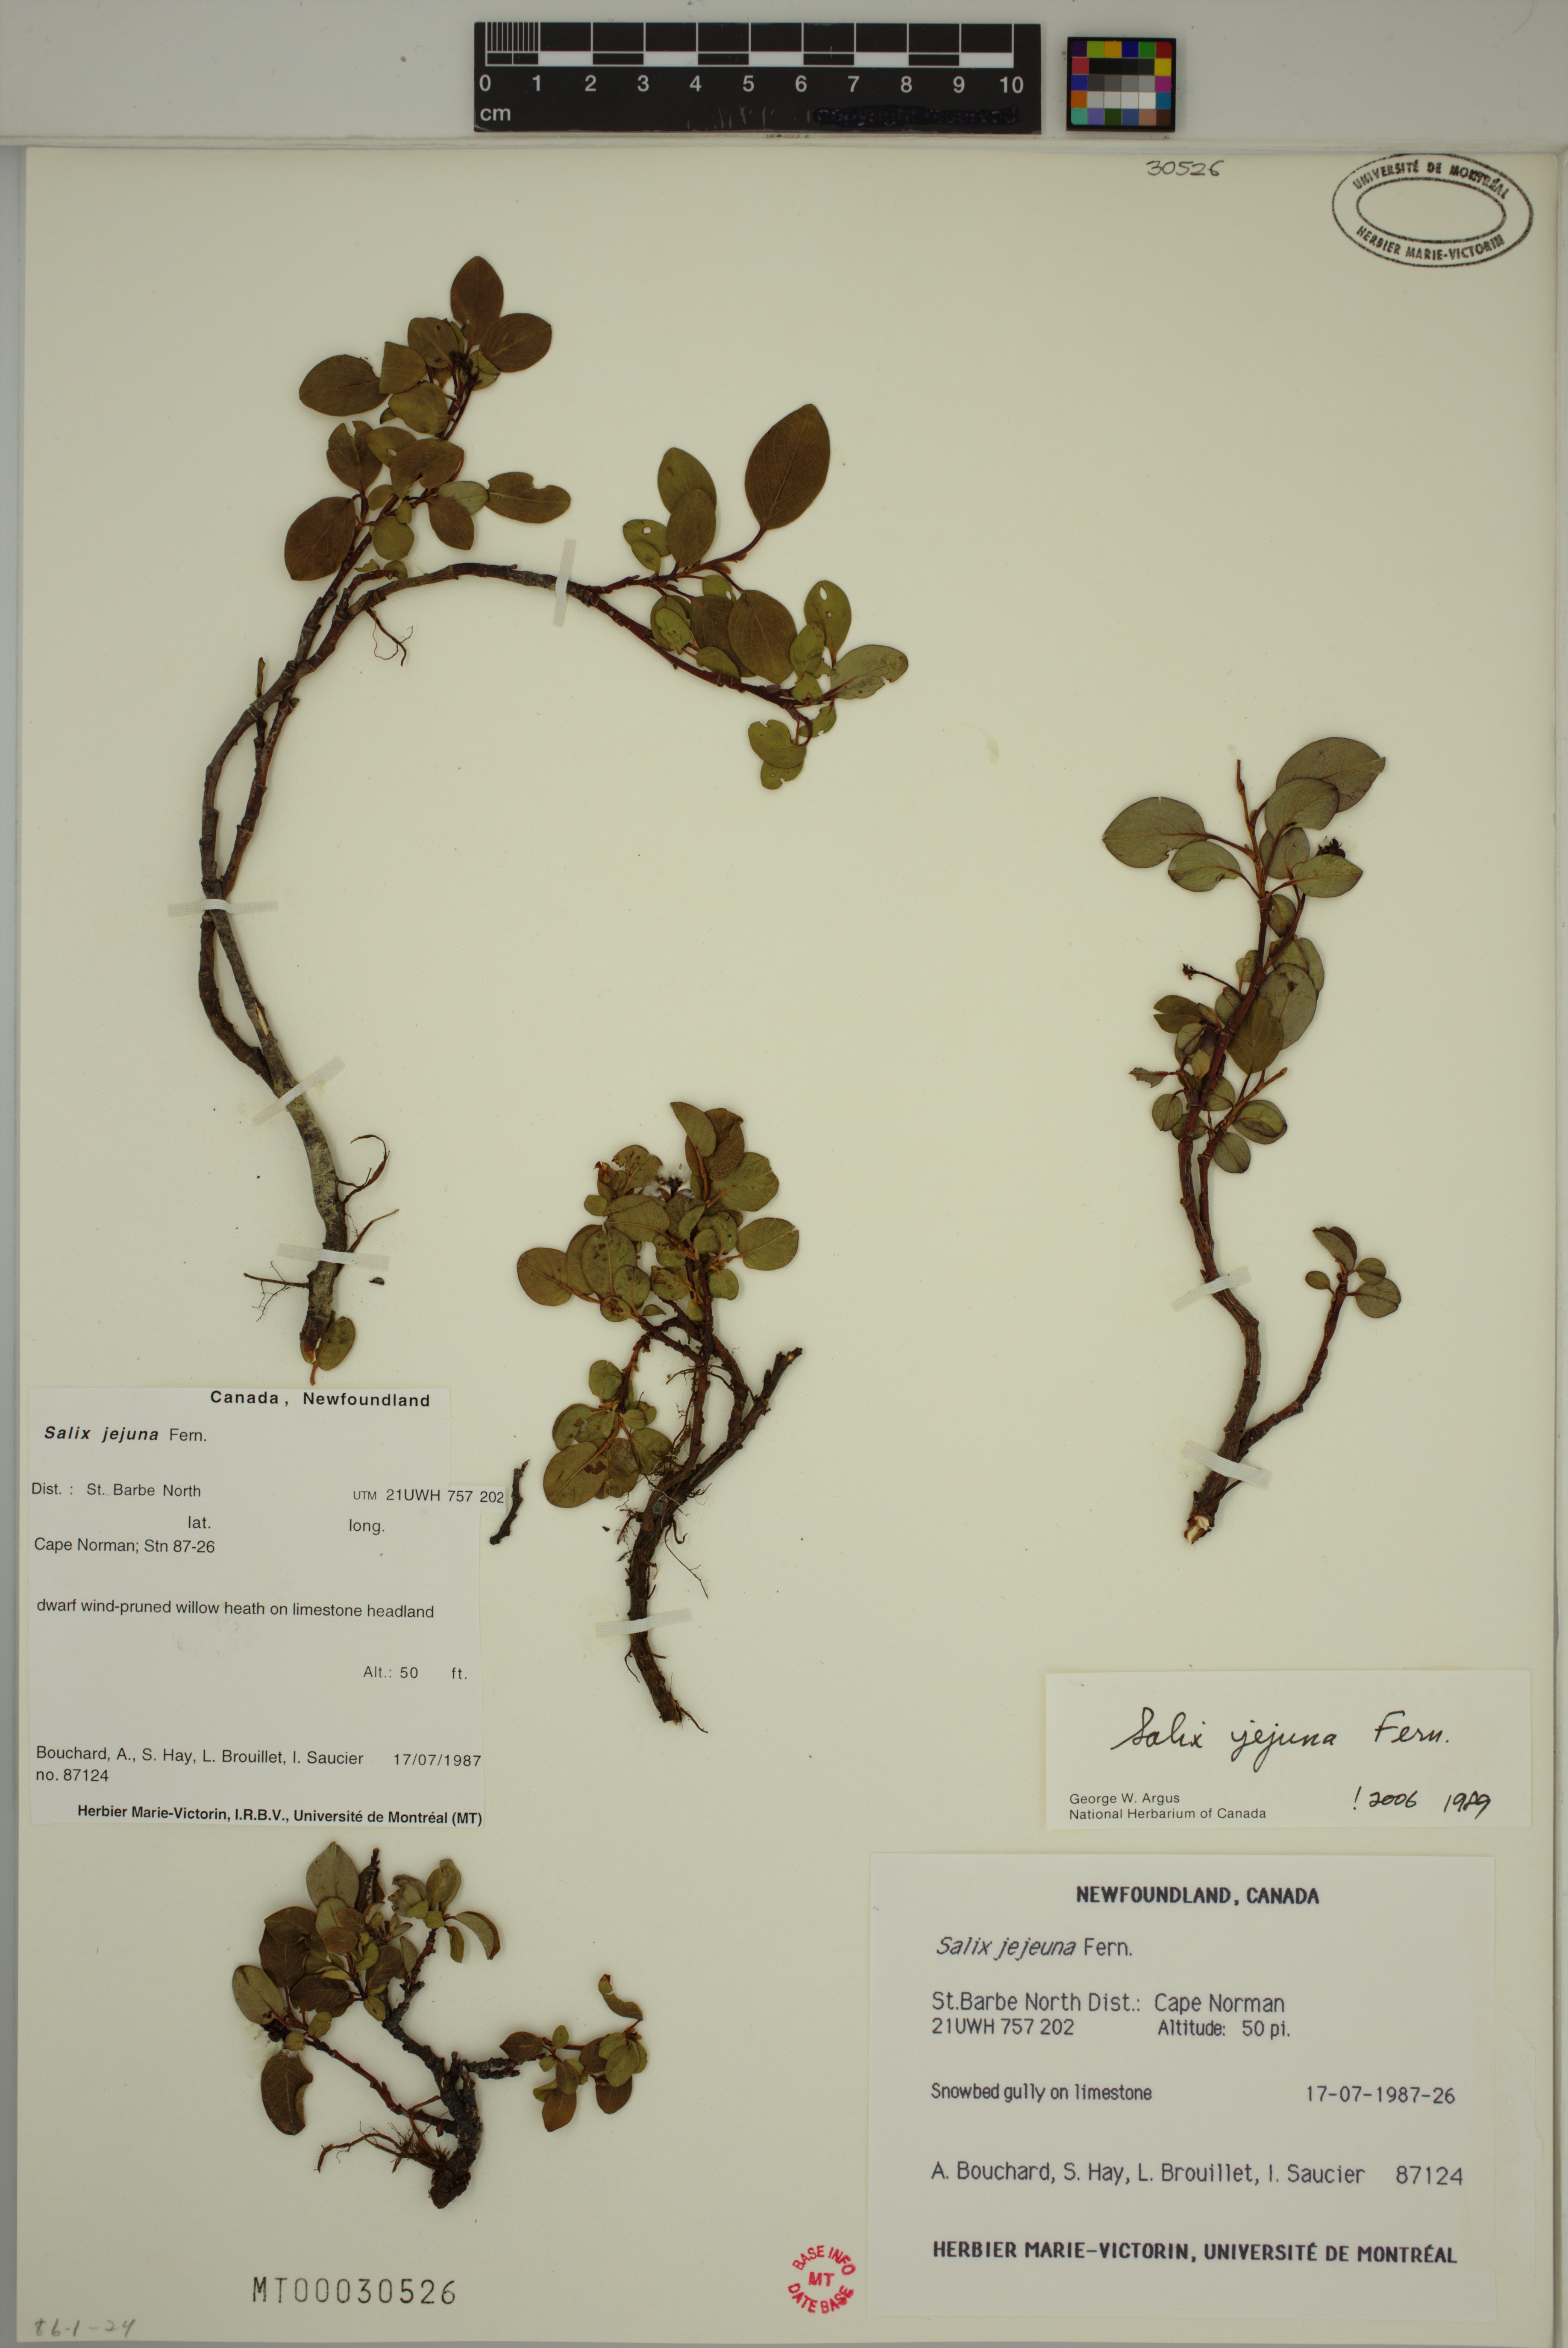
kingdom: Plantae
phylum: Tracheophyta
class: Magnoliopsida
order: Malpighiales
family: Salicaceae
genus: Salix
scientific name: Salix jejuna
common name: Belle isle dwarf willow
